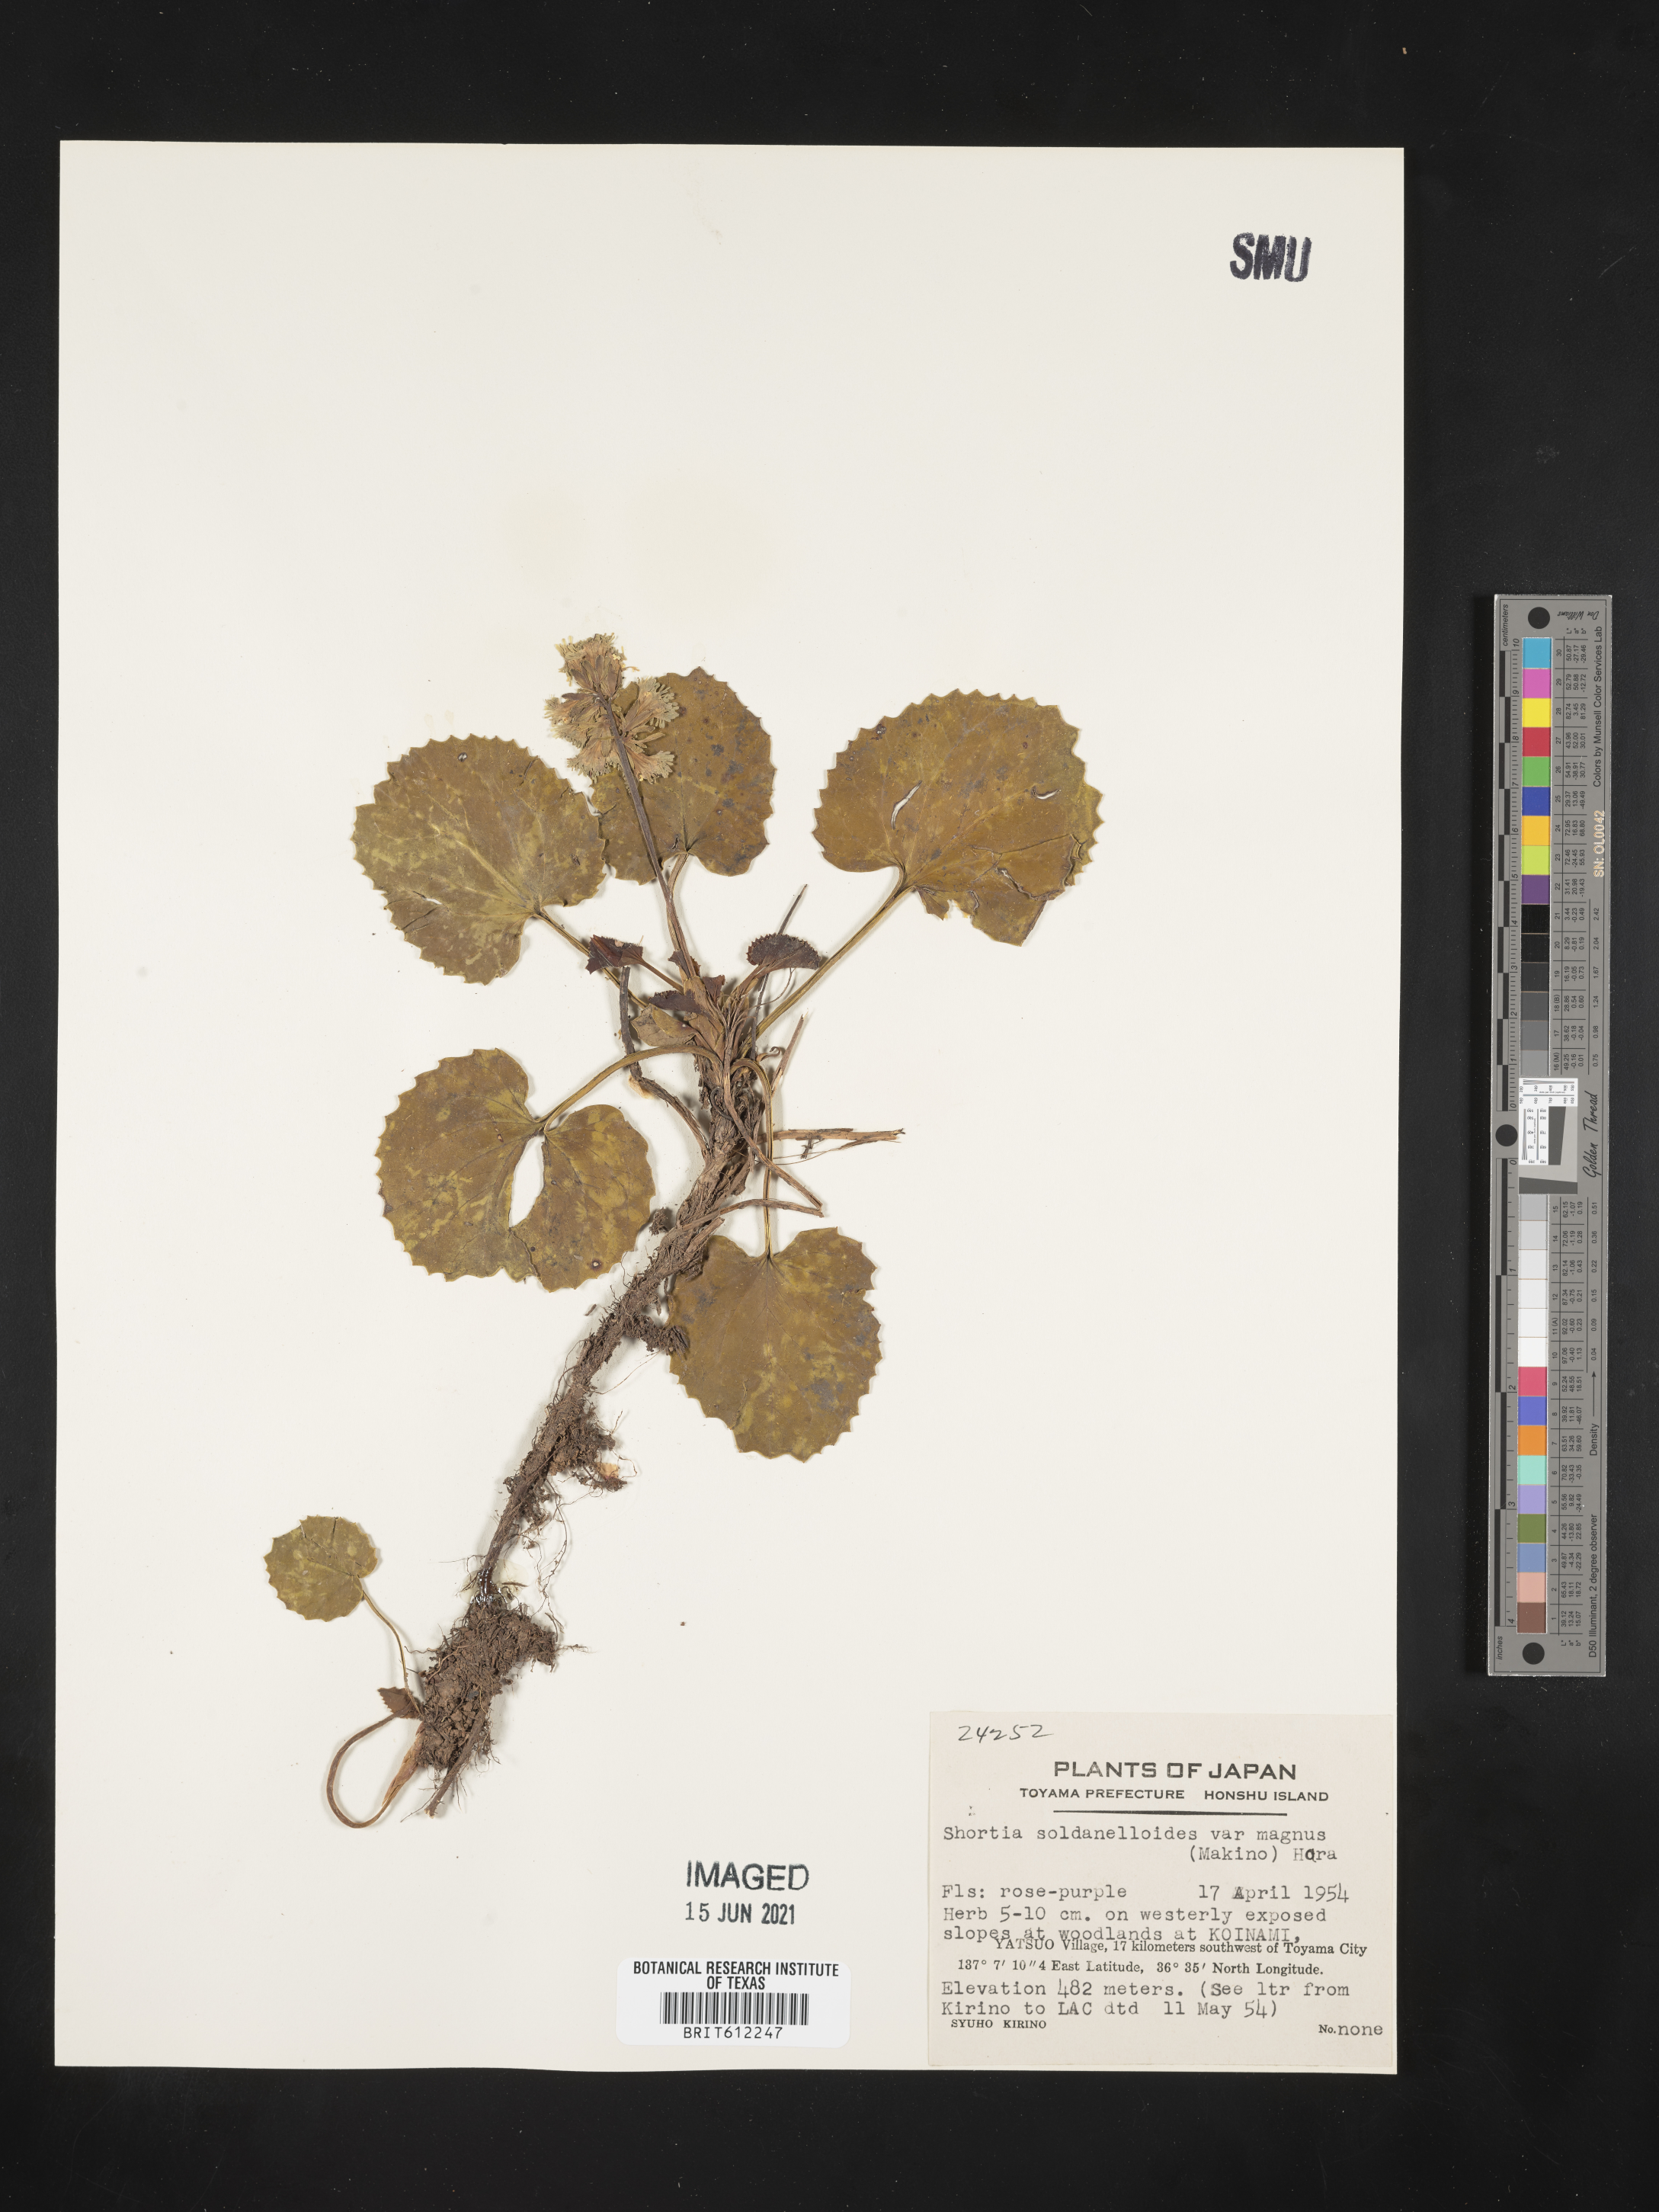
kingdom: Plantae
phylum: Tracheophyta
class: Magnoliopsida
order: Ericales
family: Diapensiaceae
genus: Schizocodon
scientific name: Schizocodon soldanelloides
